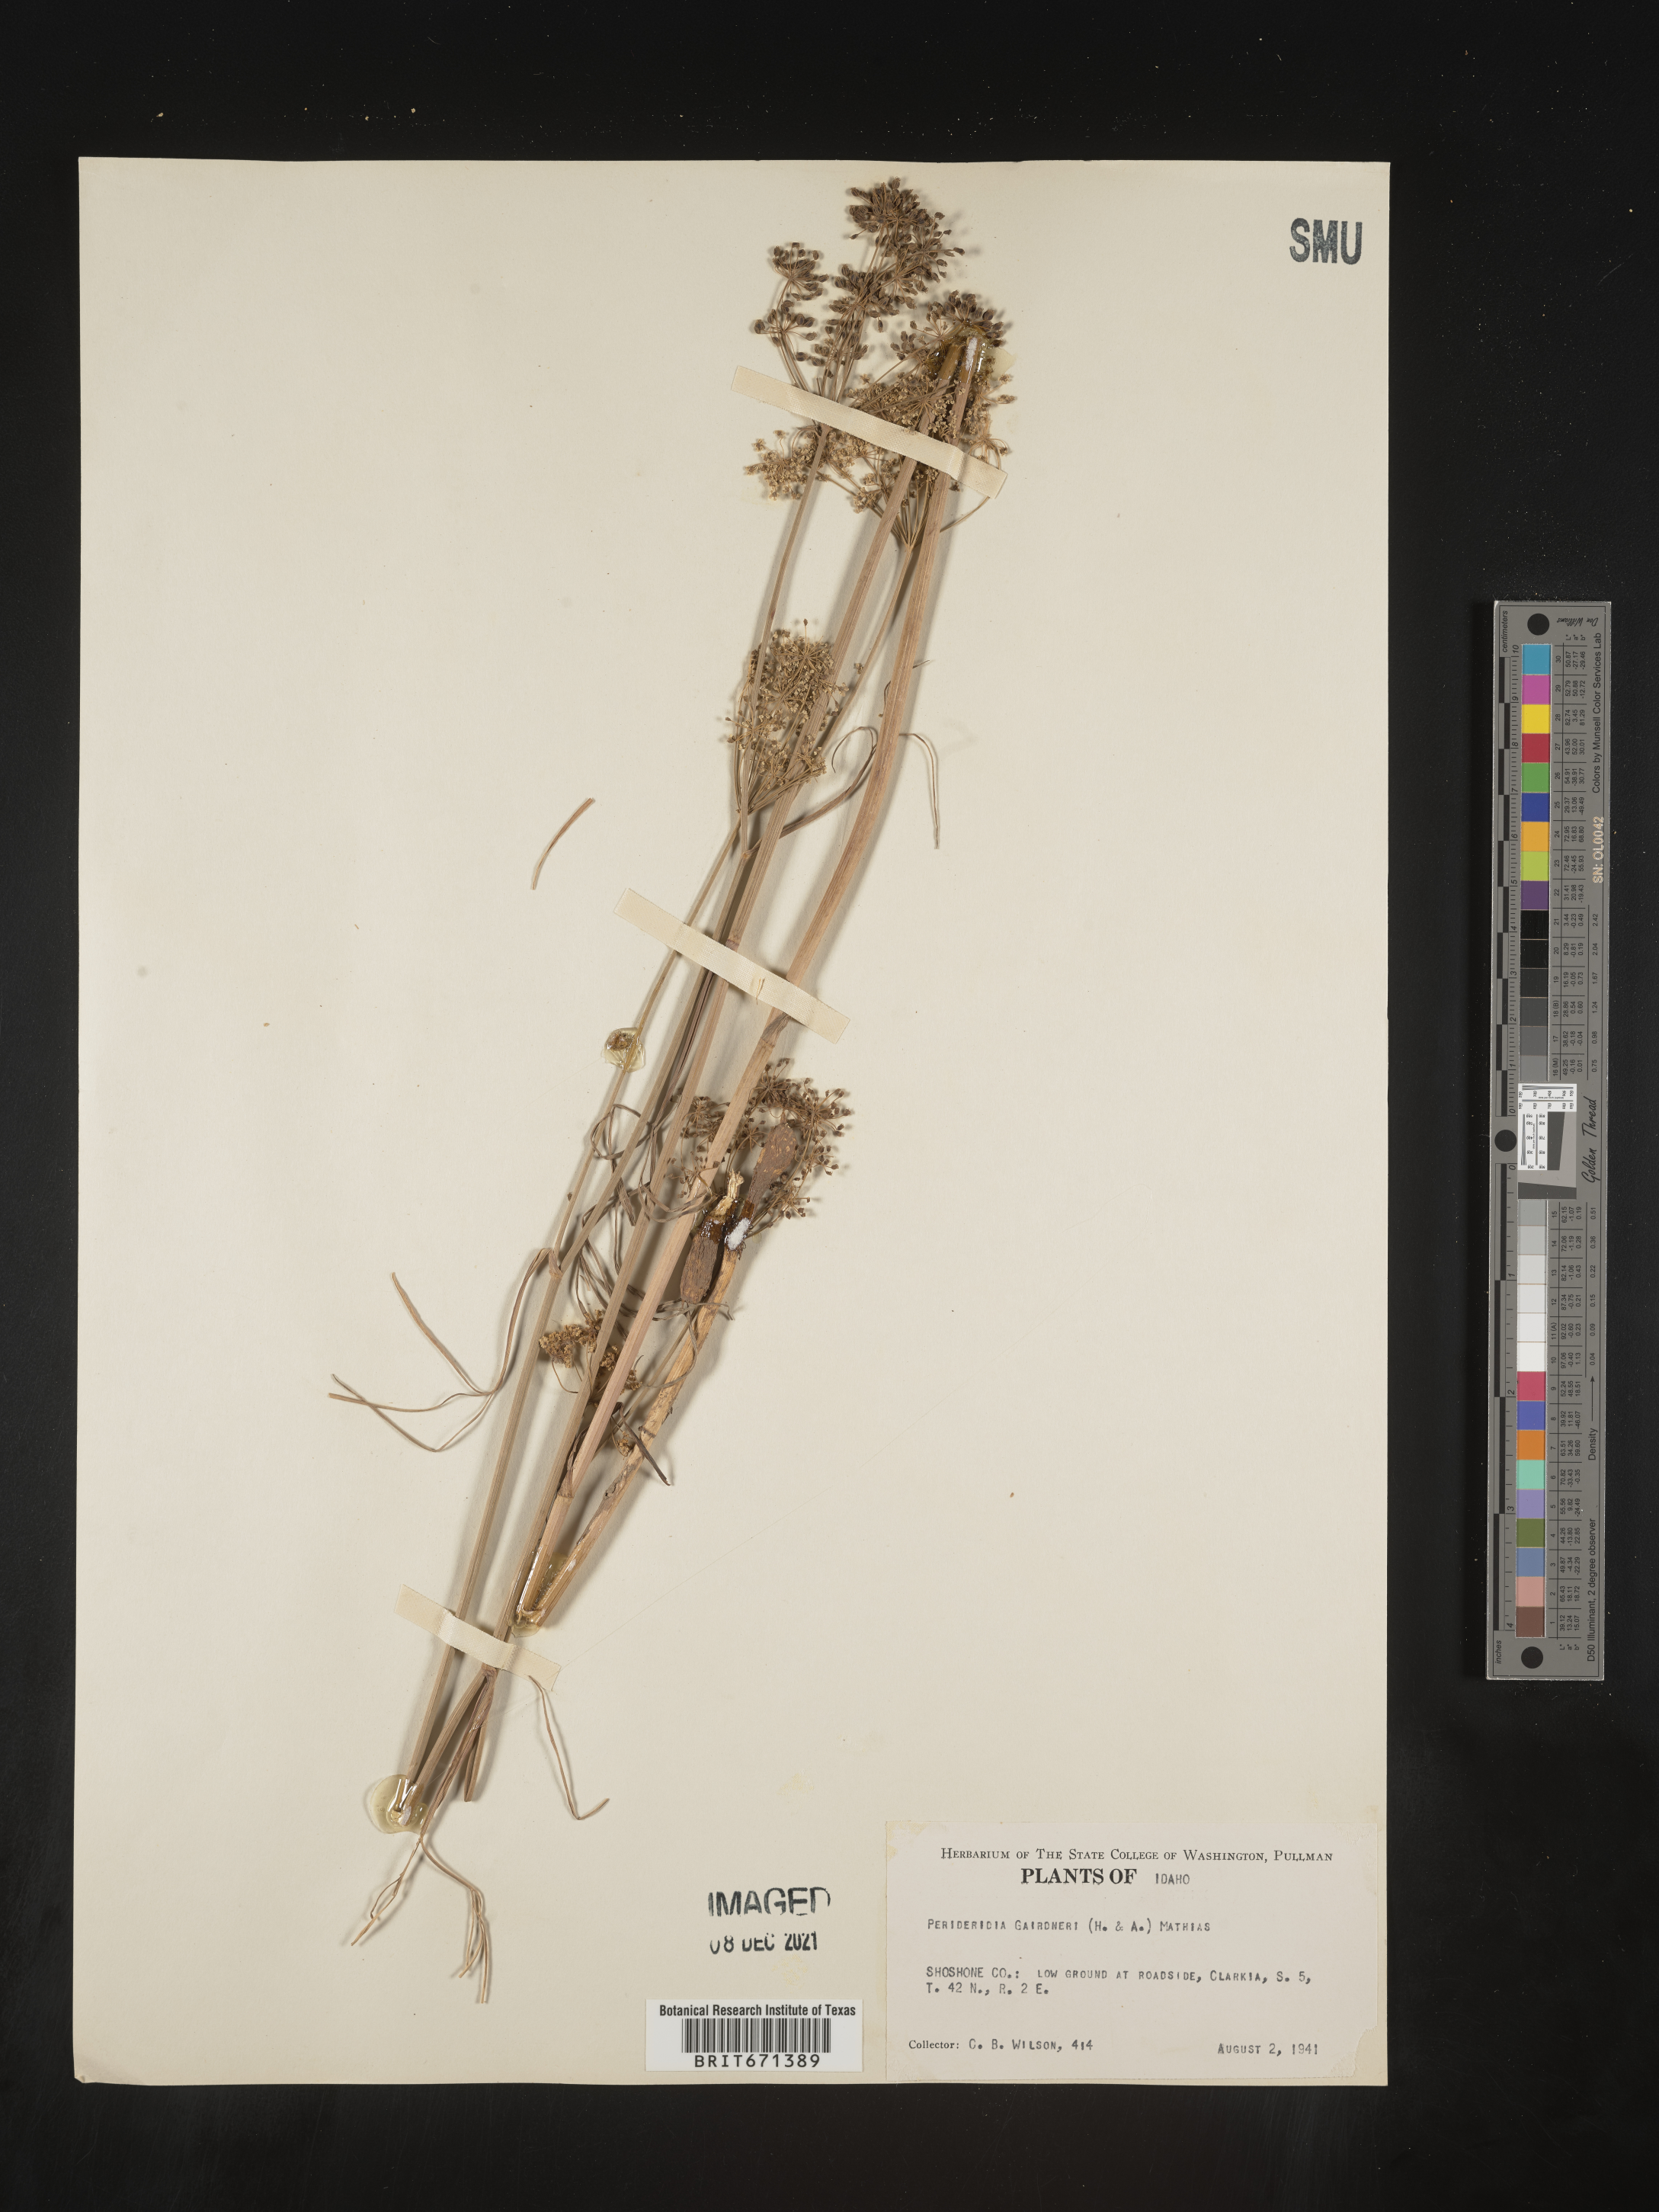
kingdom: Plantae
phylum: Tracheophyta
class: Magnoliopsida
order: Apiales
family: Apiaceae
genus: Perideridia
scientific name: Perideridia gairdneri
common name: False caraway
